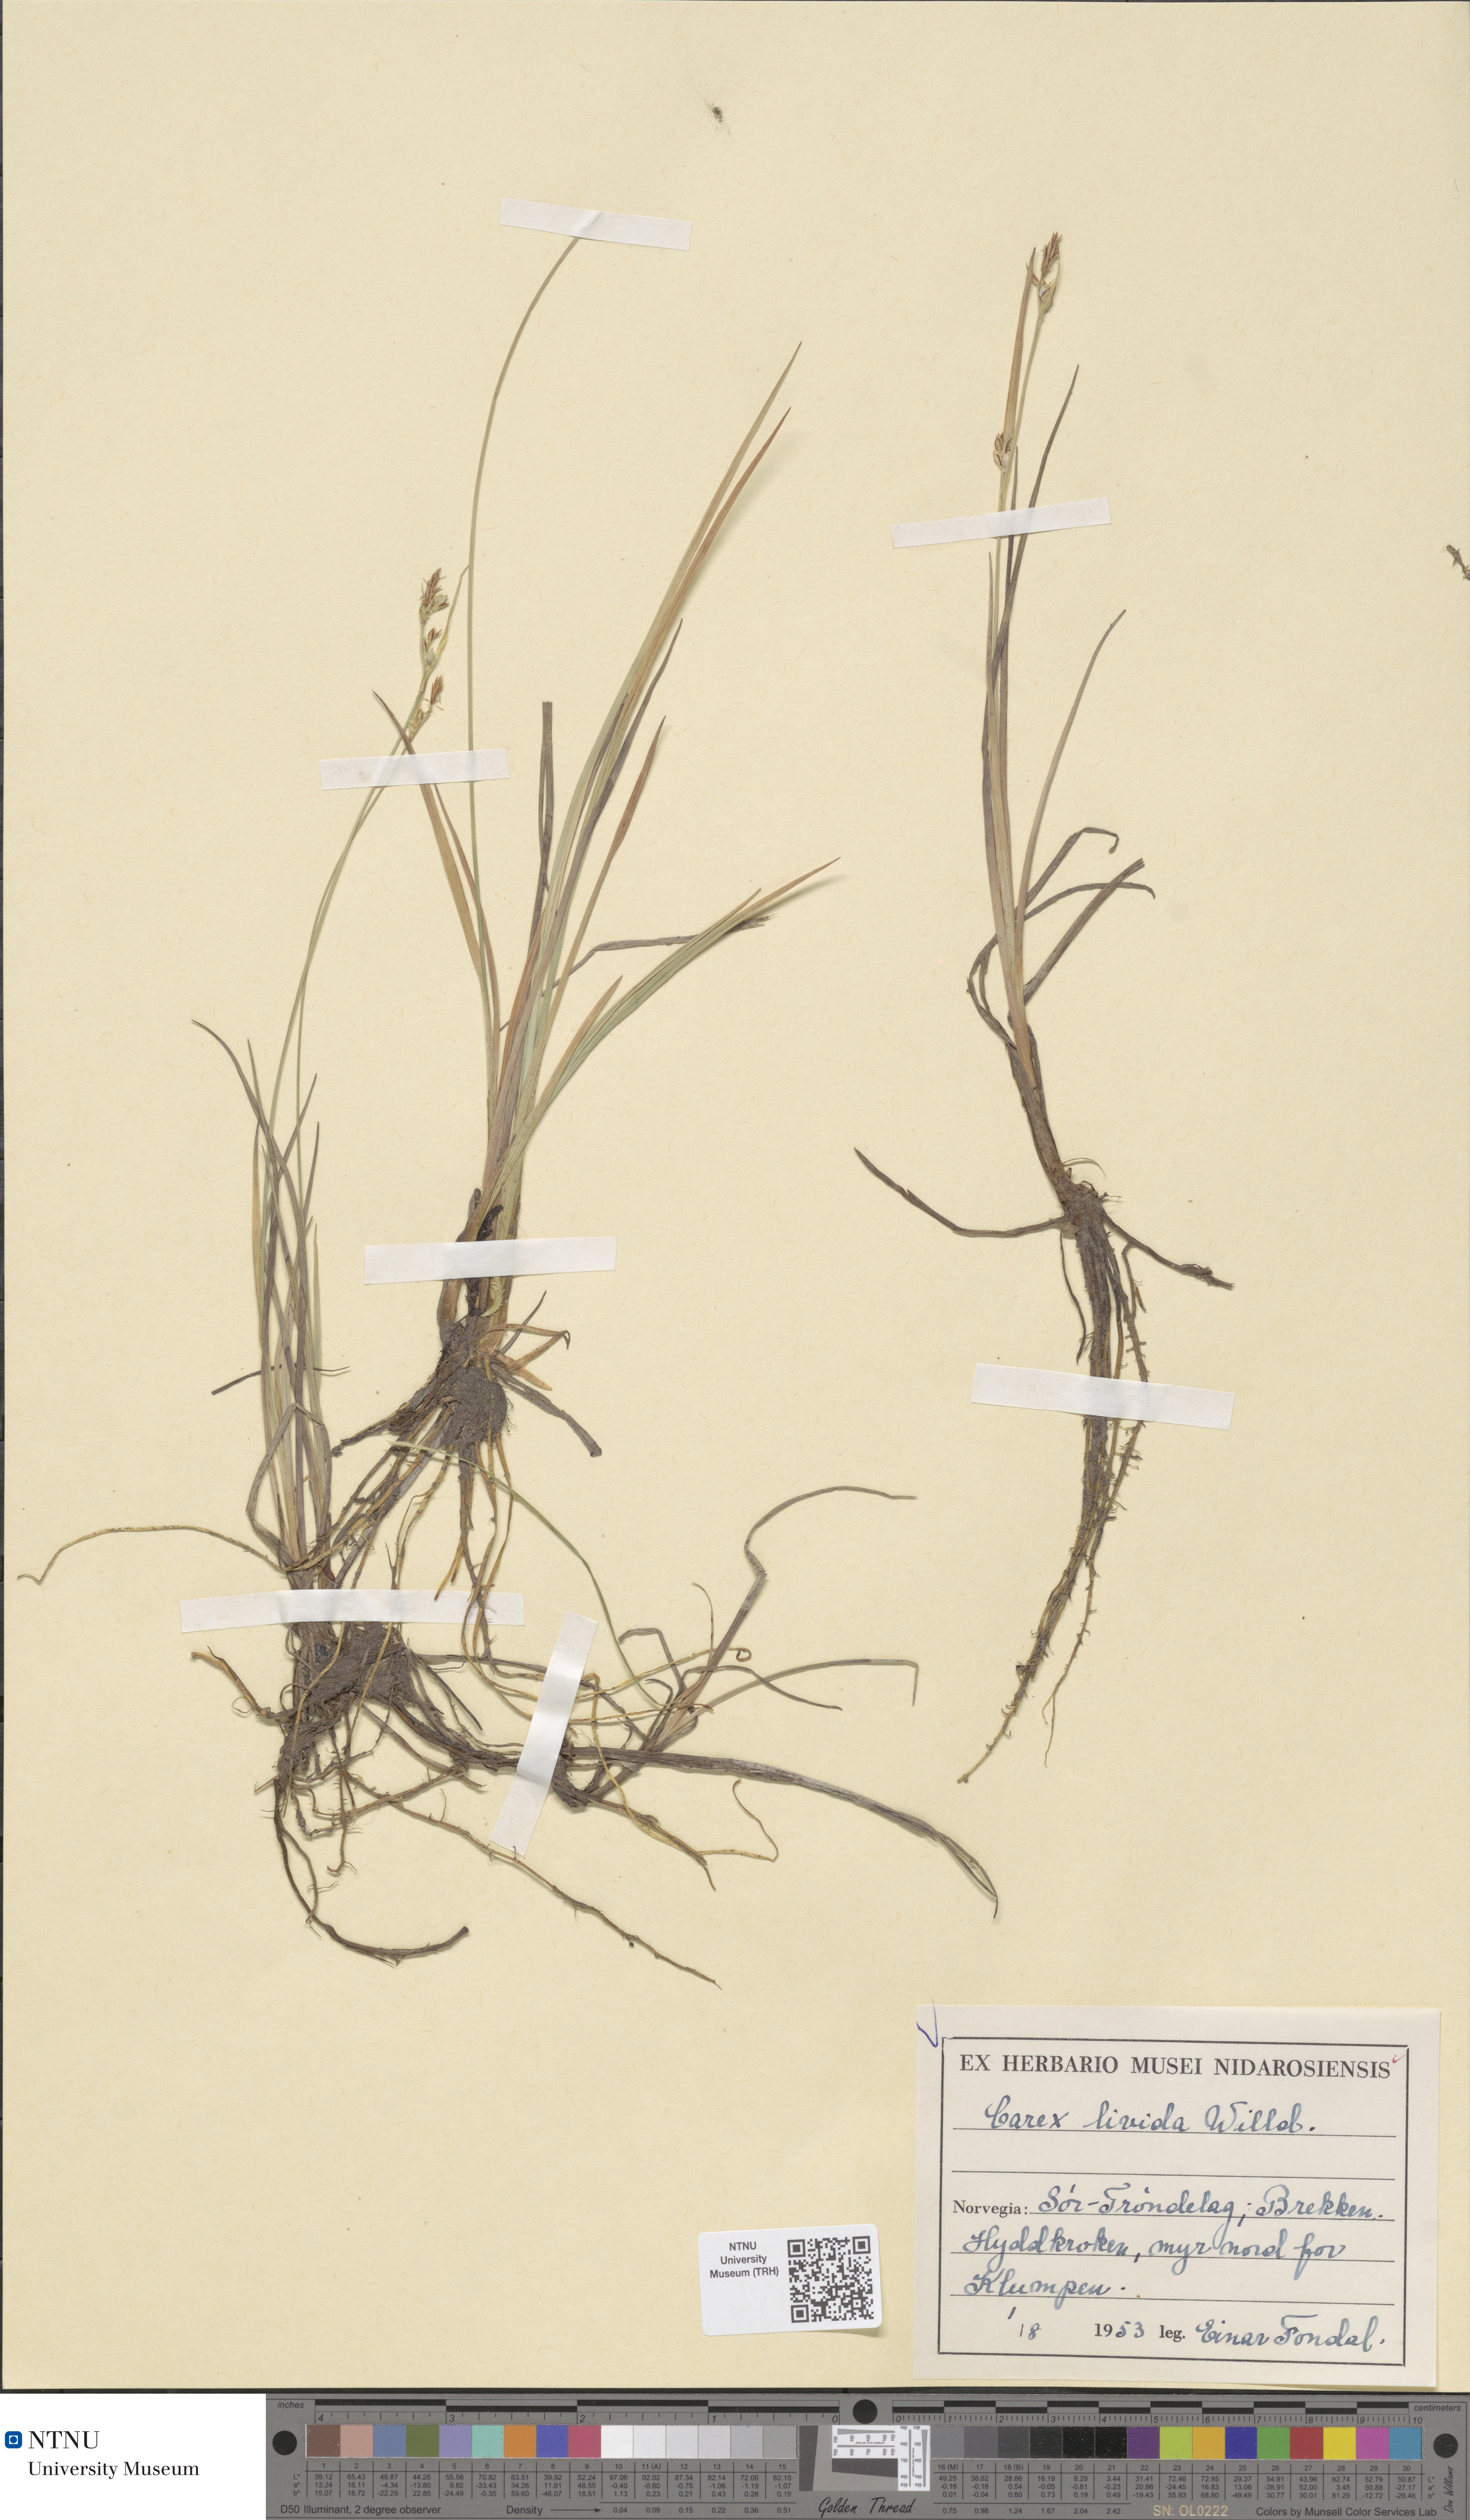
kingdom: Plantae
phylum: Tracheophyta
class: Liliopsida
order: Poales
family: Cyperaceae
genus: Carex
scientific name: Carex livida
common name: Livid sedge
